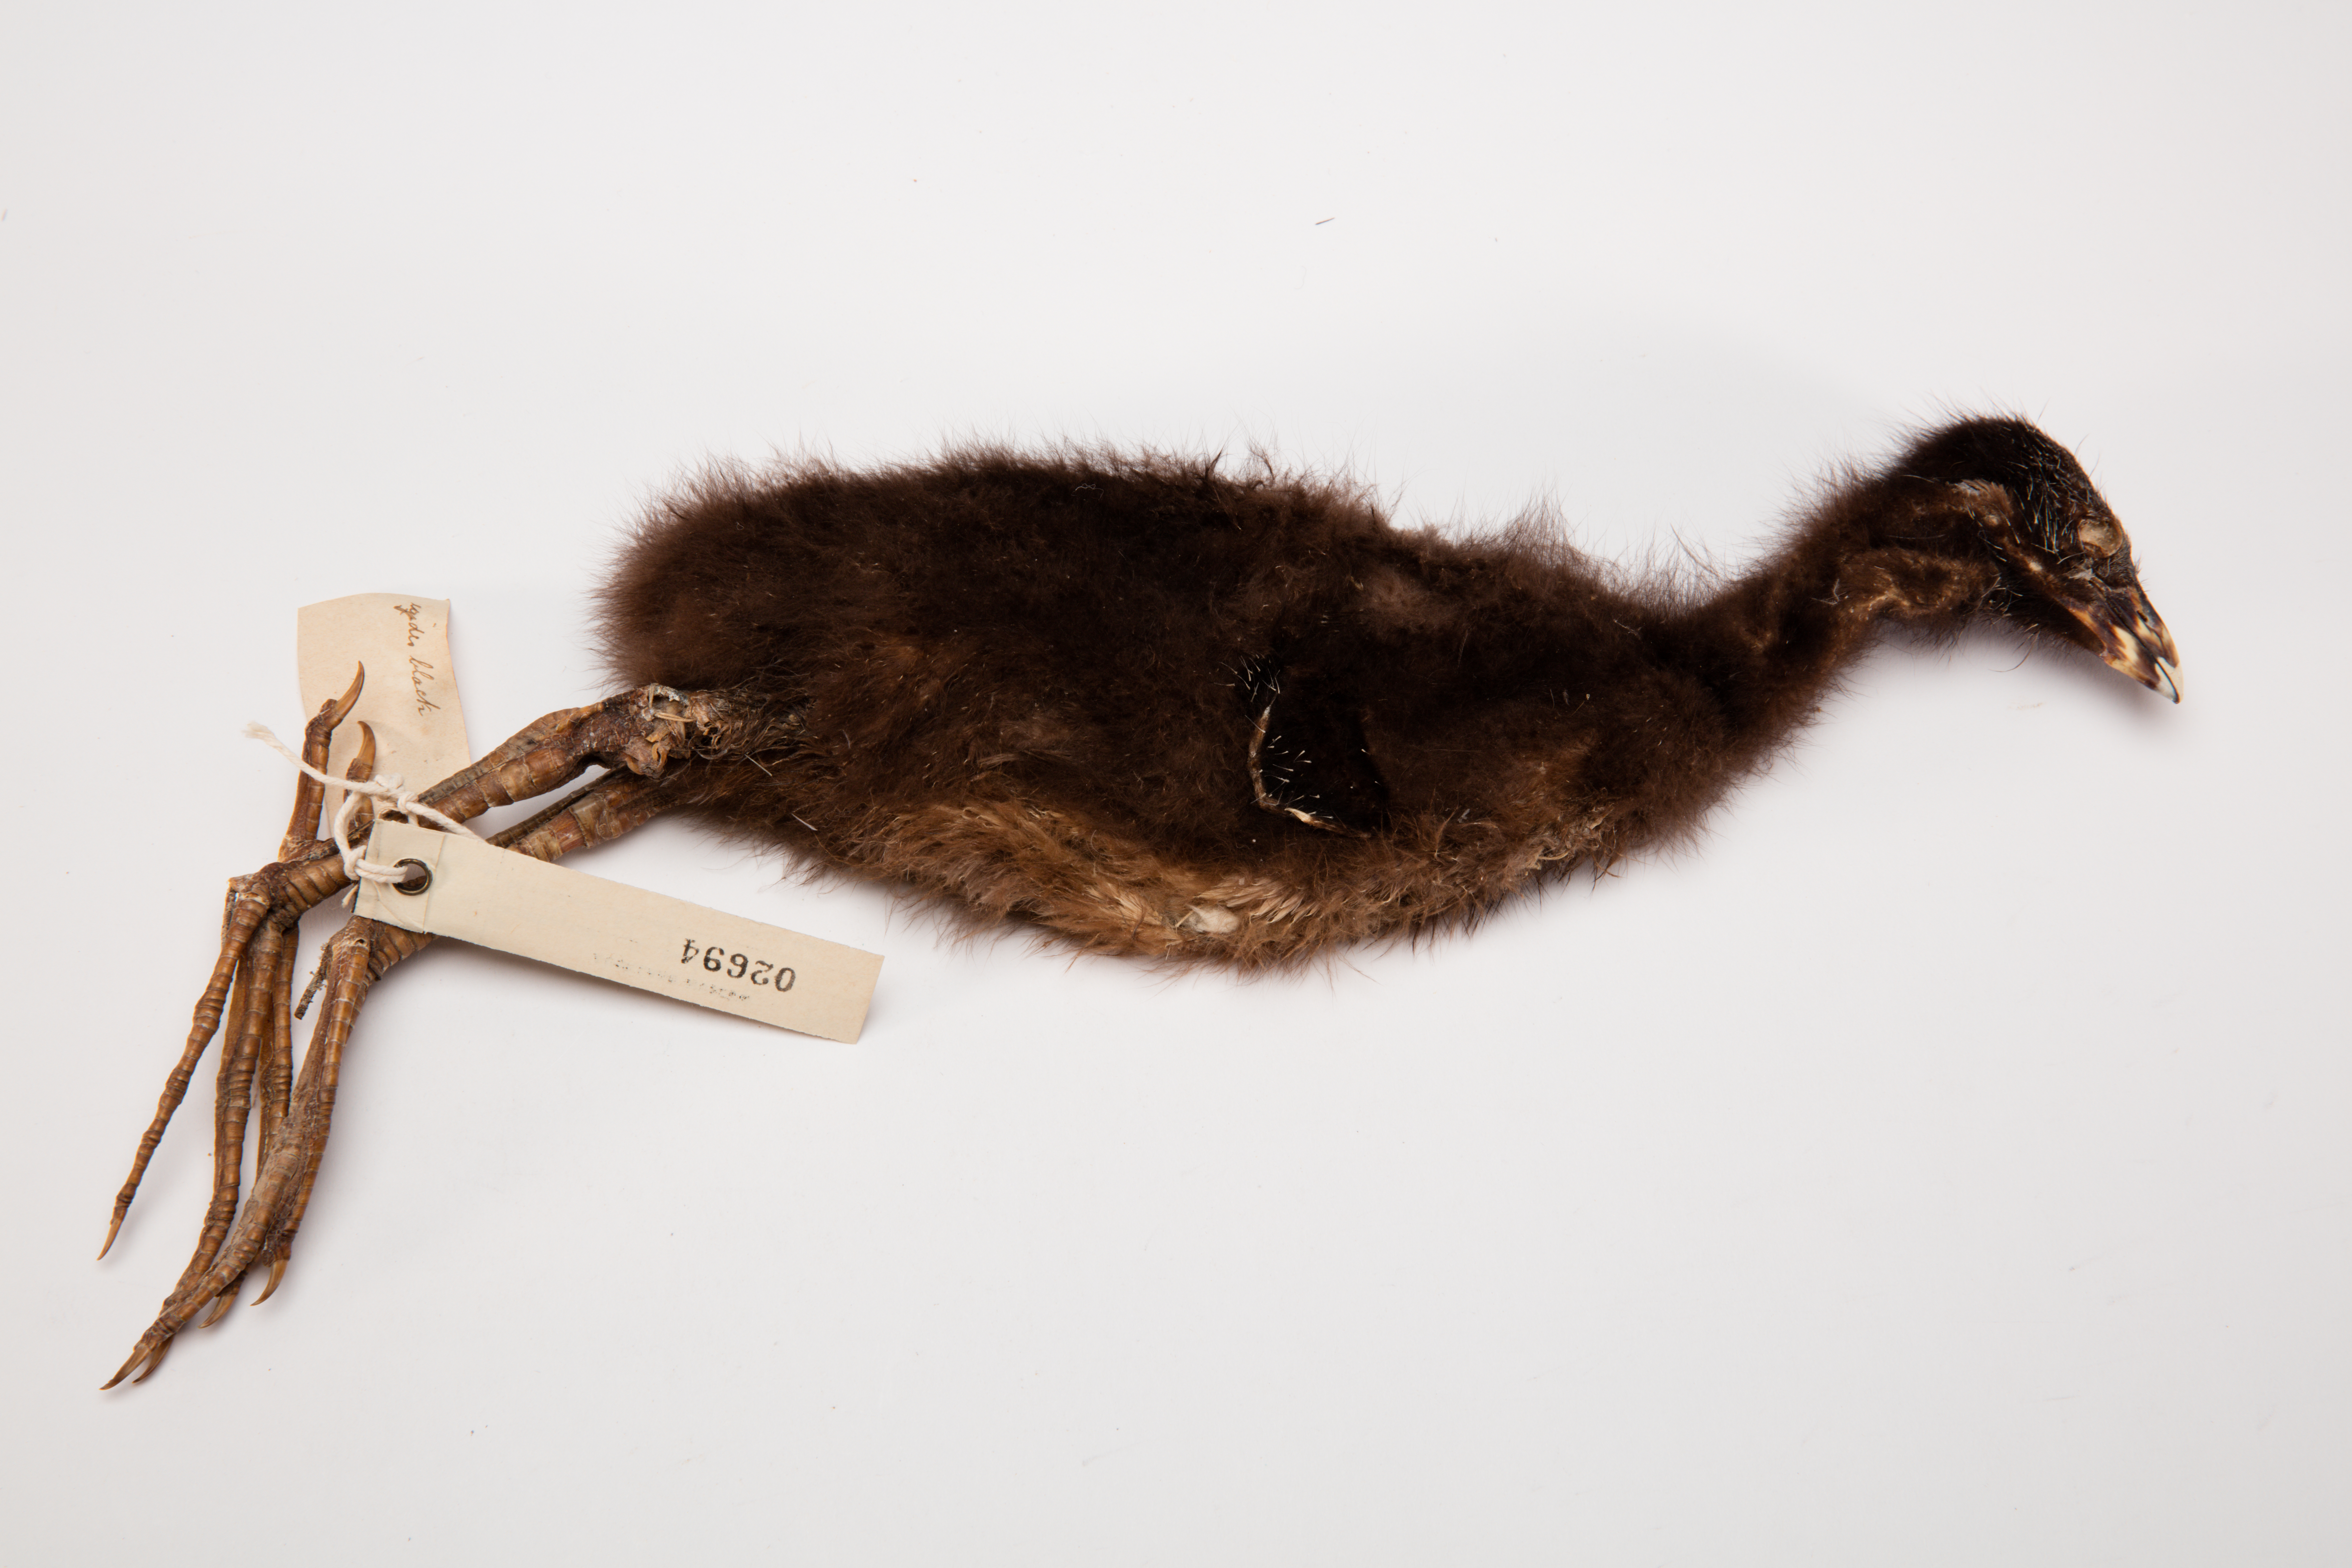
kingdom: Animalia
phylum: Chordata
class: Aves
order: Gruiformes
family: Rallidae
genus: Porphyrio
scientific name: Porphyrio melanotus
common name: Australasian swamphen
